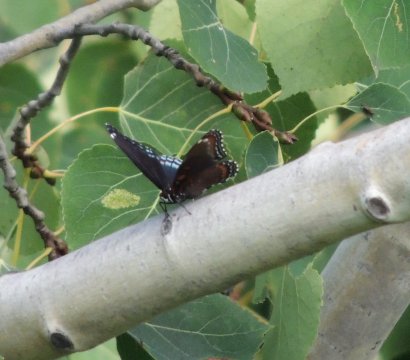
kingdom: Animalia
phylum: Arthropoda
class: Insecta
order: Lepidoptera
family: Nymphalidae
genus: Limenitis
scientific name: Limenitis arthemis
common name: Red-spotted Admiral
